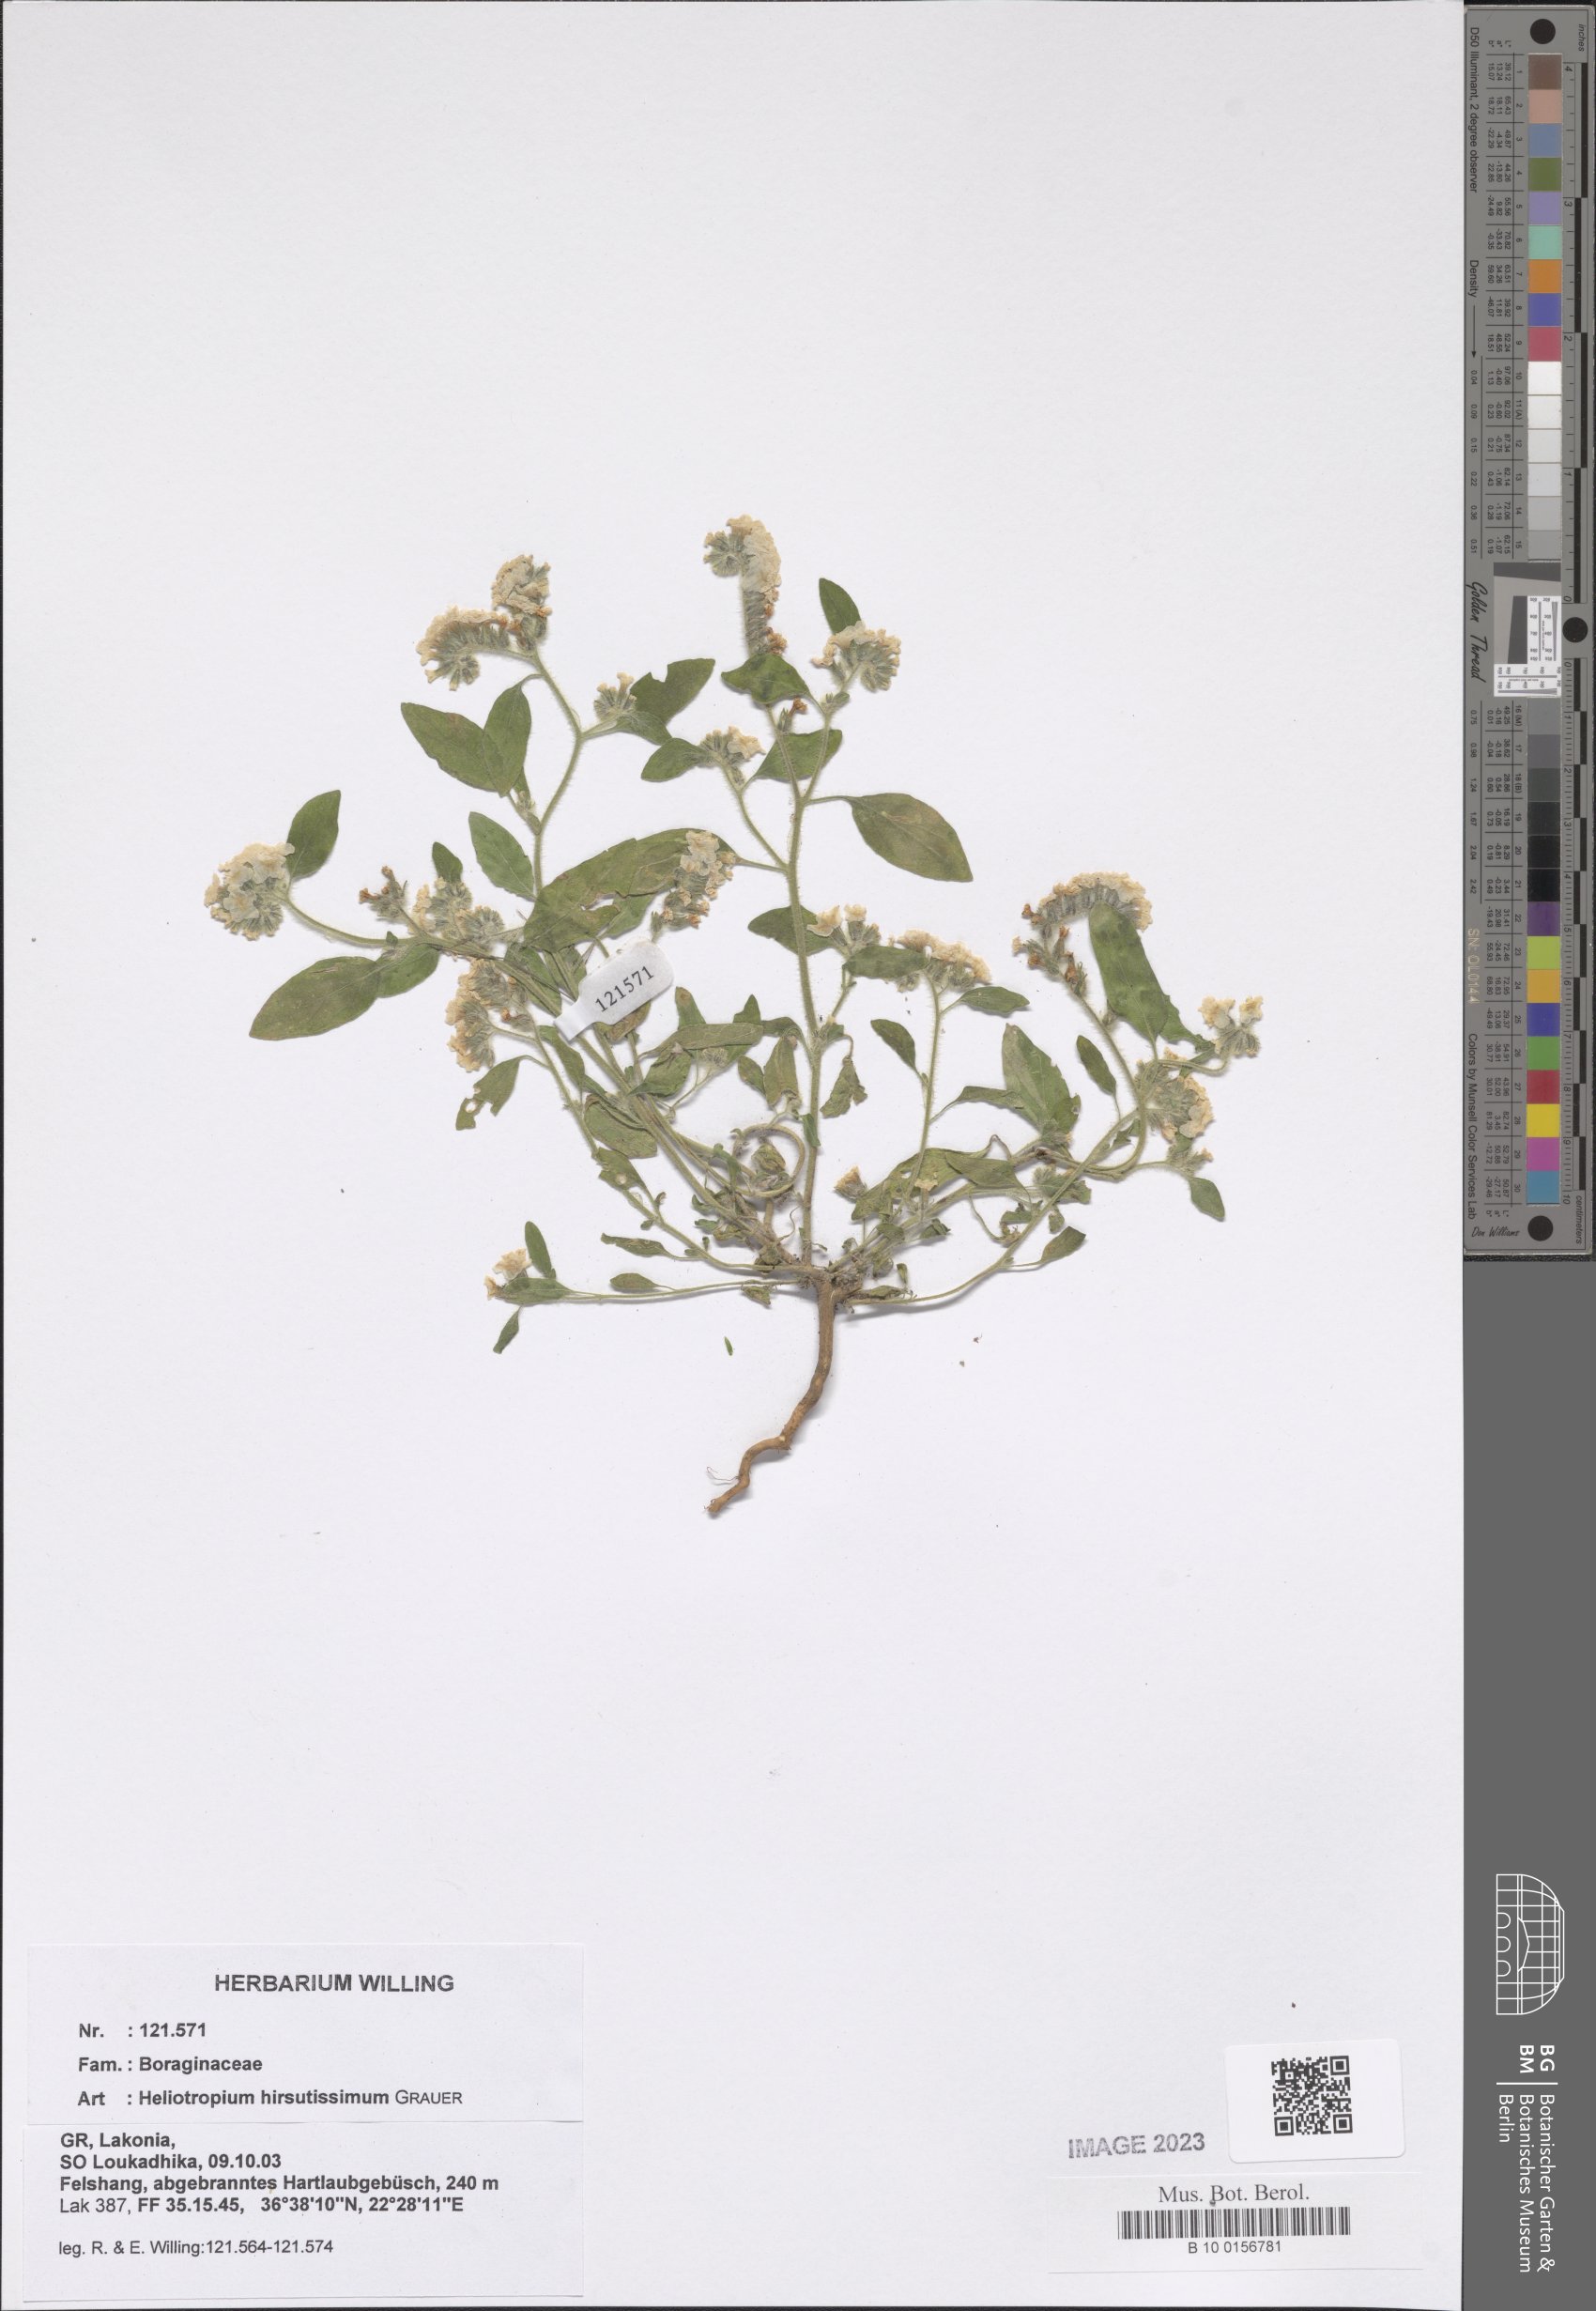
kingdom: Plantae
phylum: Tracheophyta
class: Magnoliopsida
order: Boraginales
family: Heliotropiaceae
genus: Heliotropium
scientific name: Heliotropium hirsutissimum
